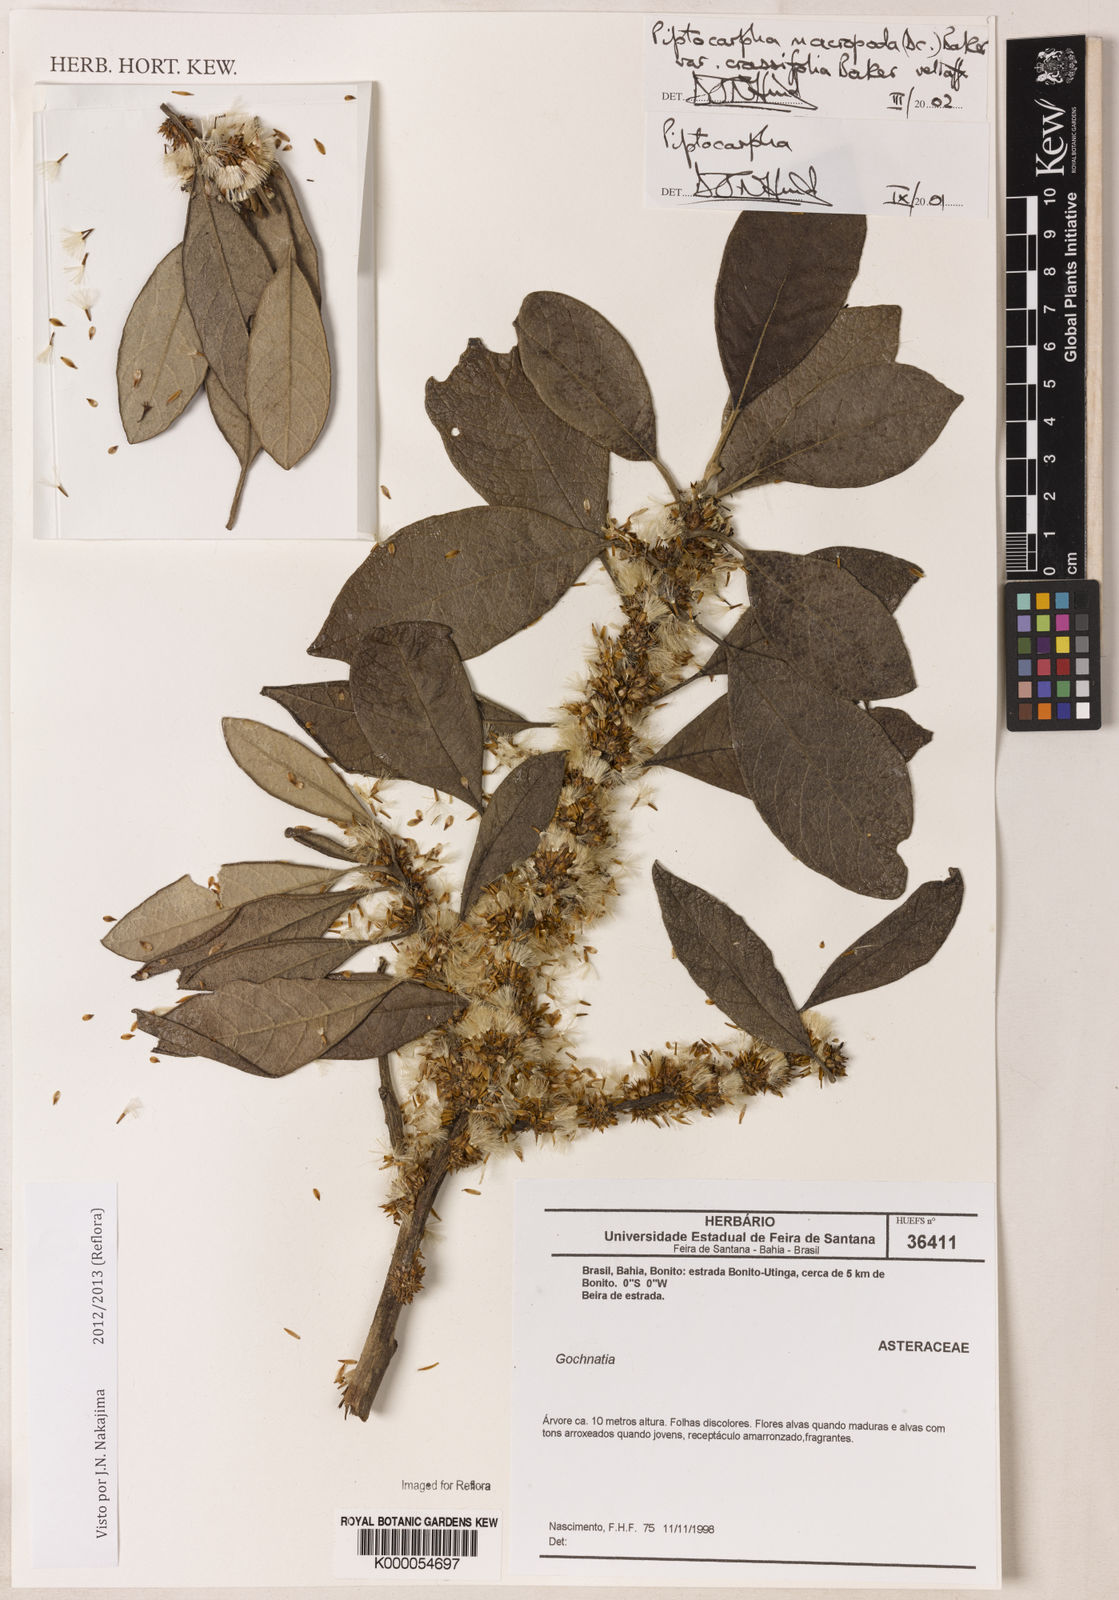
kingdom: Plantae
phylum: Tracheophyta
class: Magnoliopsida
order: Asterales
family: Asteraceae
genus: Piptocarpha
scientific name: Piptocarpha macropoda
